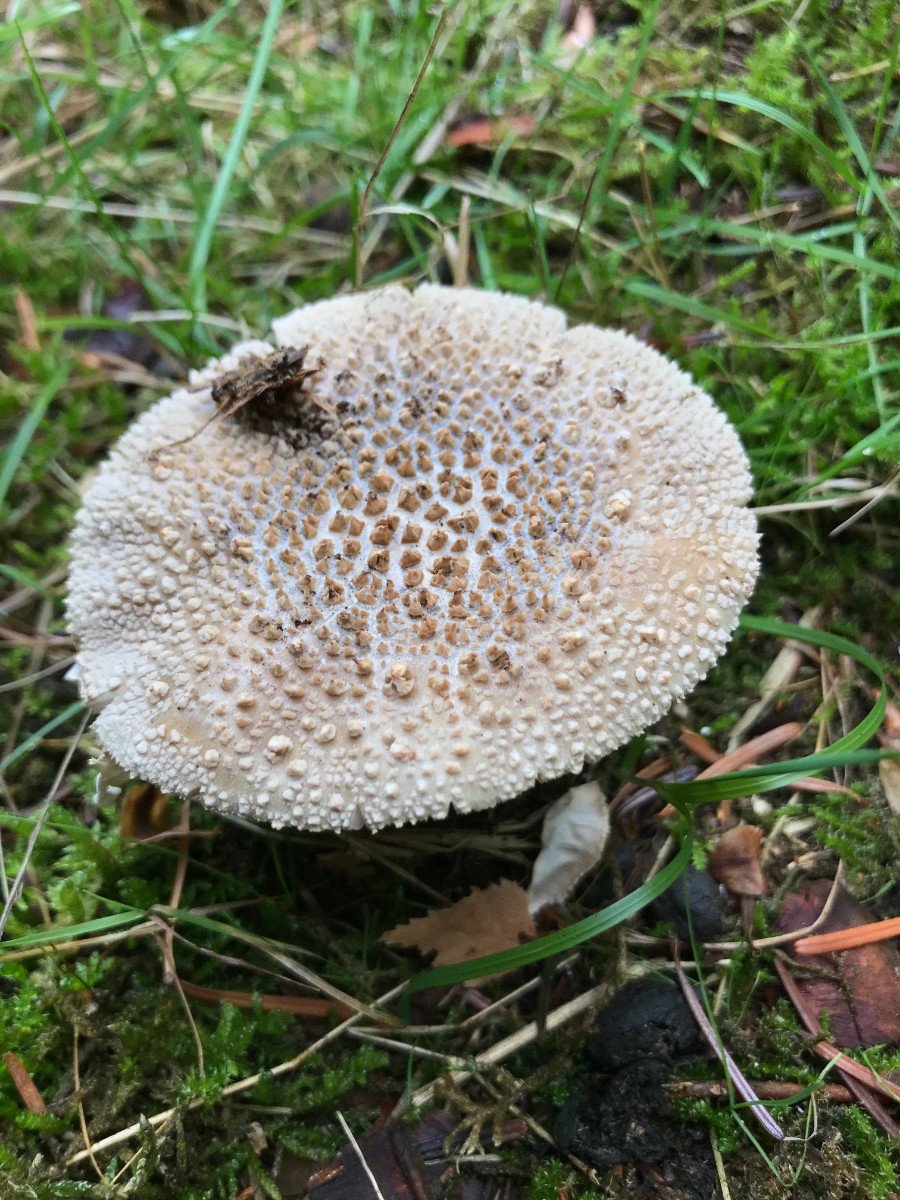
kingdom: Fungi
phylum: Basidiomycota
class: Agaricomycetes
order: Agaricales
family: Amanitaceae
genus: Amanita
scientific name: Amanita rubescens
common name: rødmende fluesvamp
